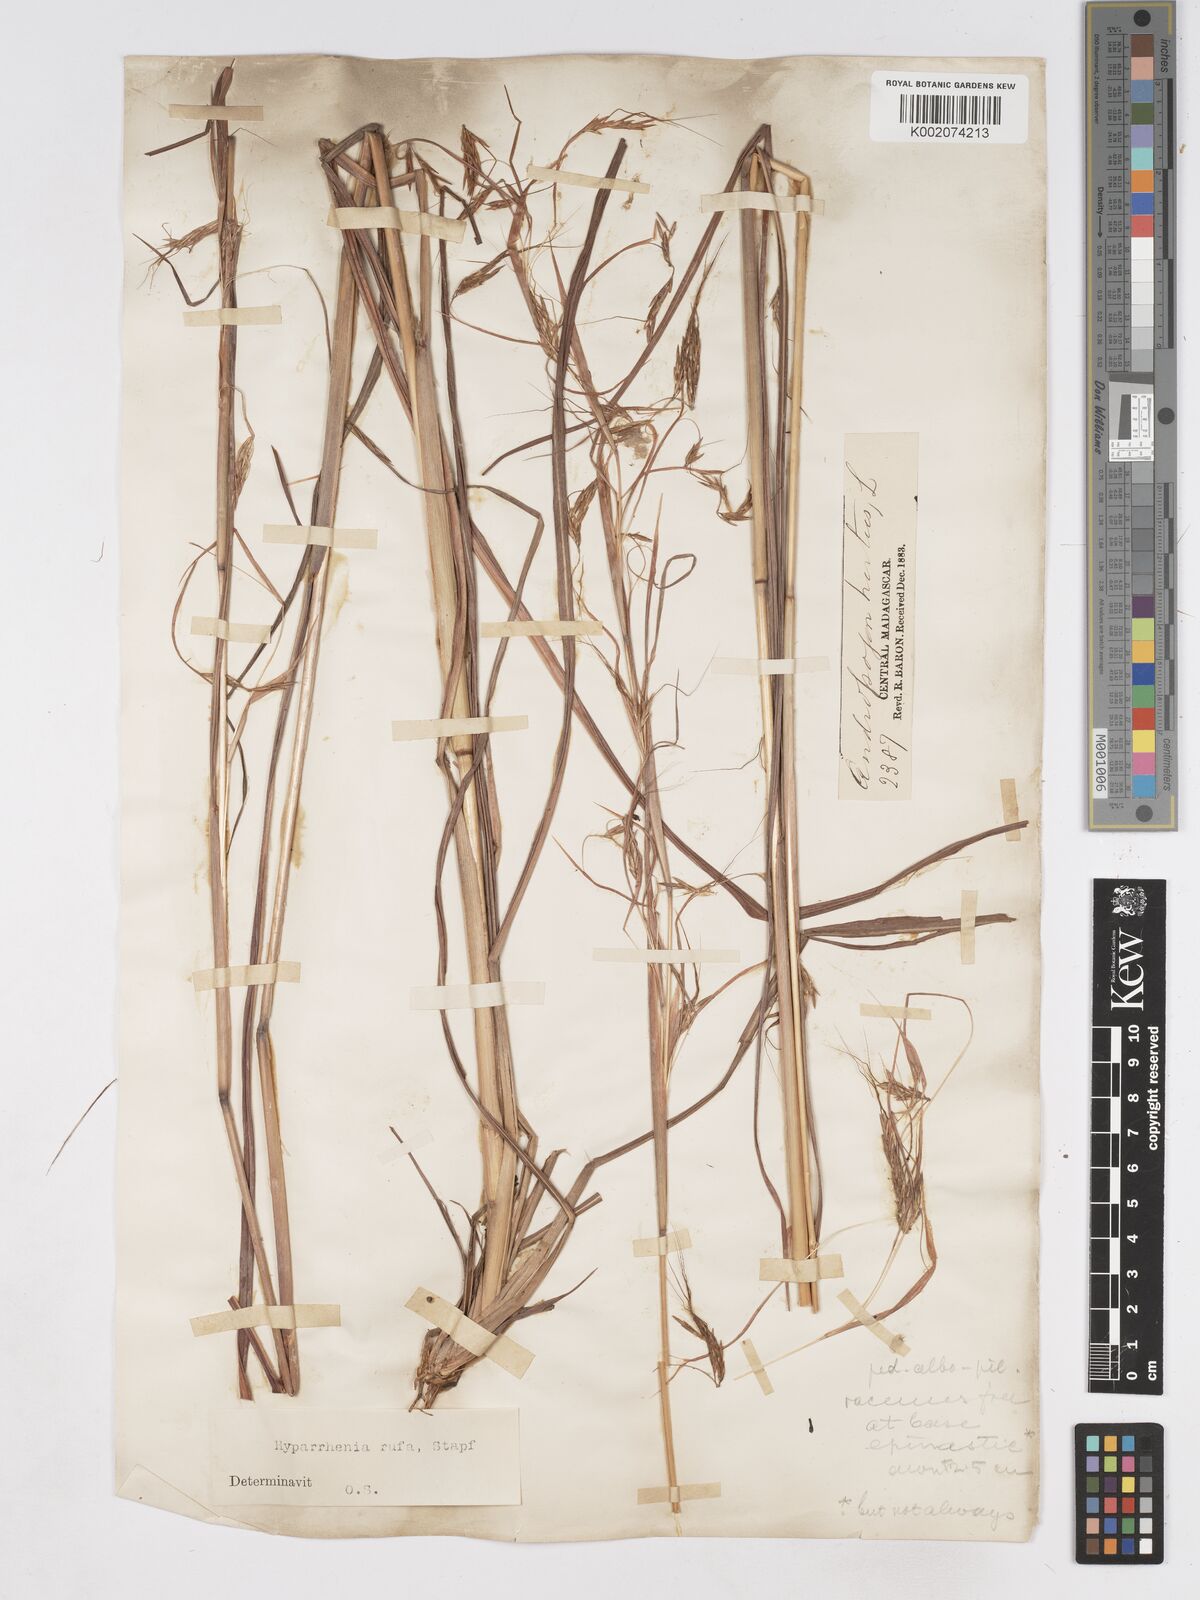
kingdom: Plantae
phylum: Tracheophyta
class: Liliopsida
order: Poales
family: Poaceae
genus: Hyparrhenia
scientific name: Hyparrhenia rufa
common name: Jaraguagrass
